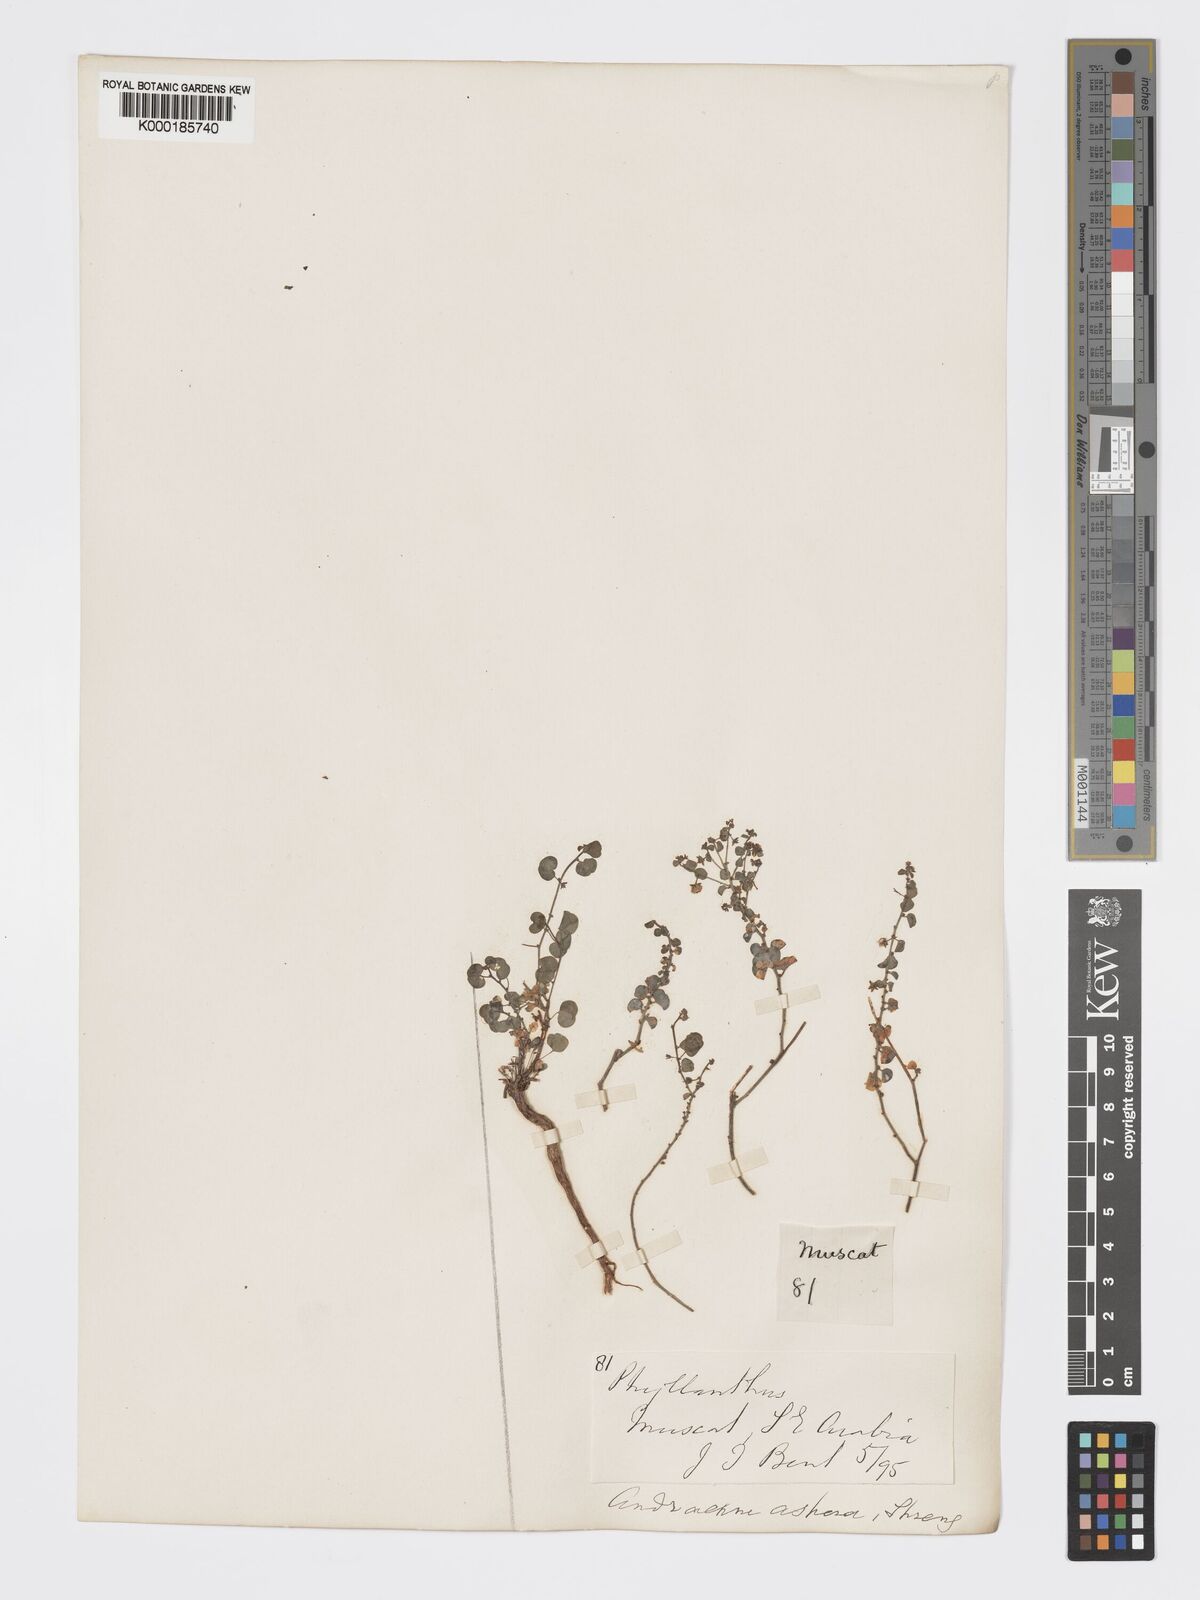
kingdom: Plantae
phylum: Tracheophyta
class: Magnoliopsida
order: Malpighiales
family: Phyllanthaceae
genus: Andrachne
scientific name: Andrachne aspera
